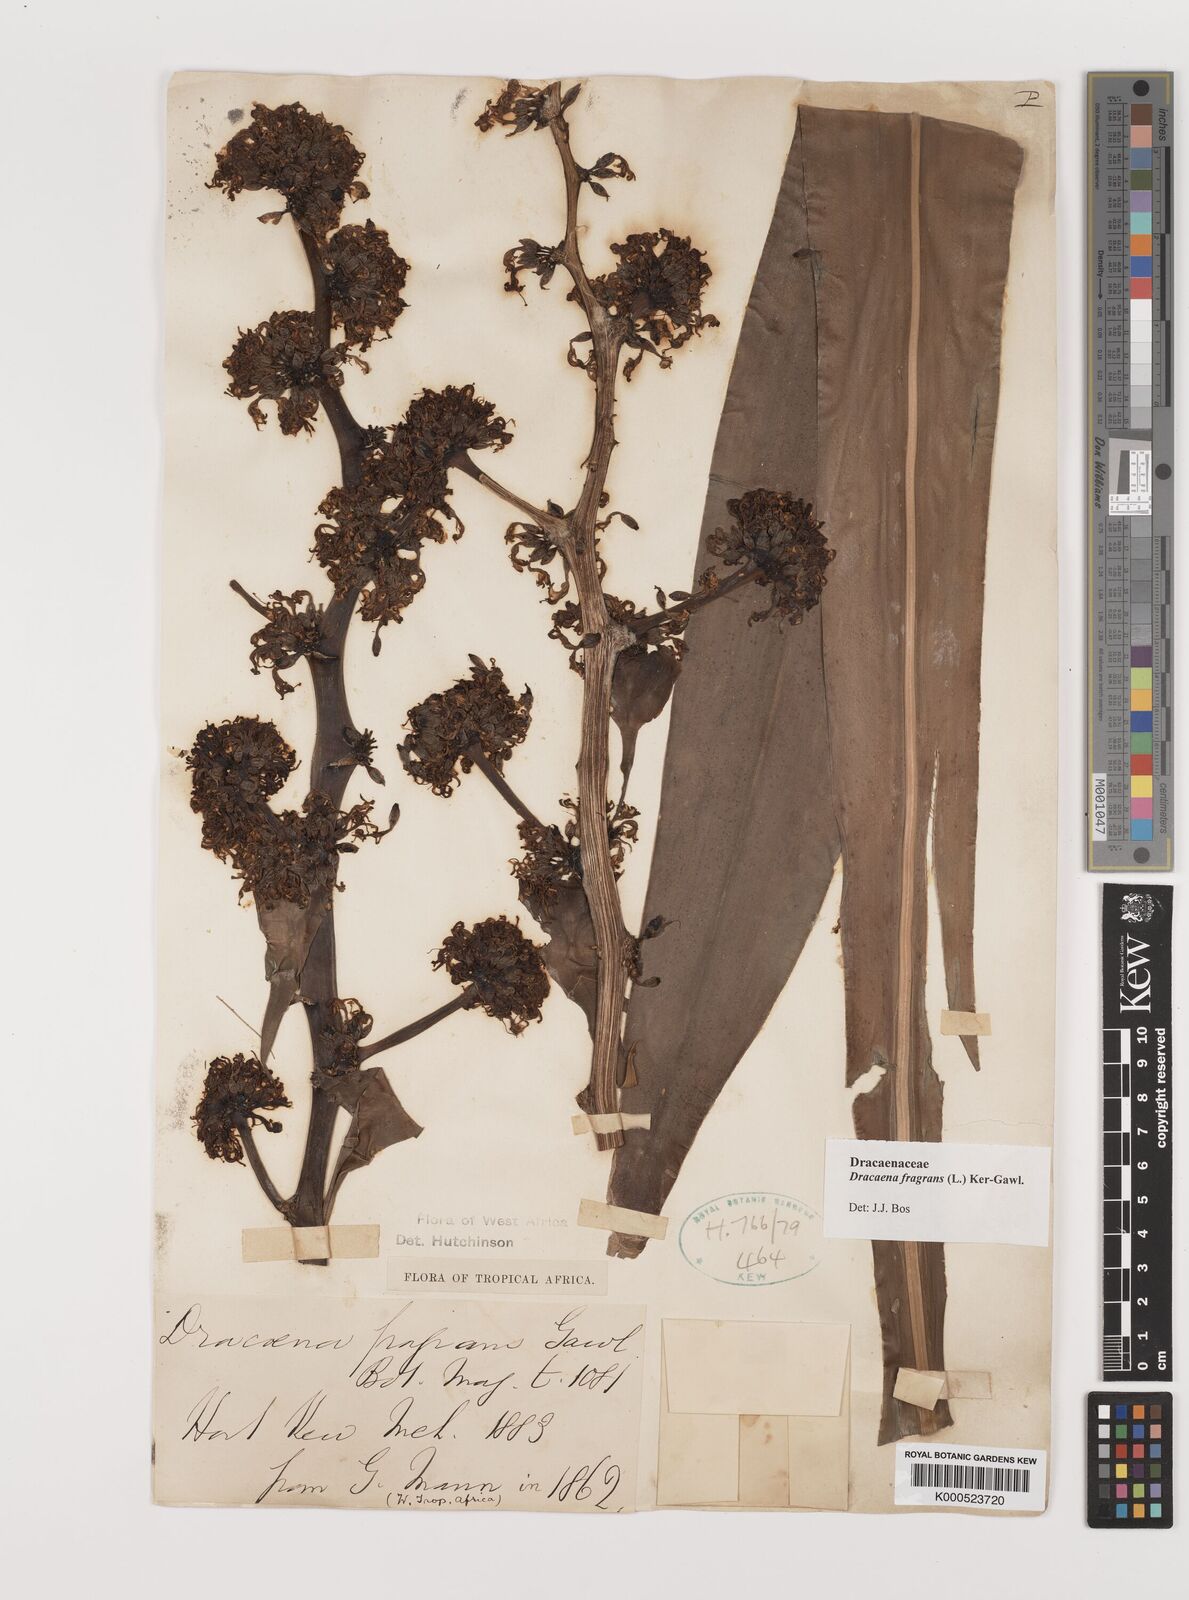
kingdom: Plantae
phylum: Tracheophyta
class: Liliopsida
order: Asparagales
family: Asparagaceae
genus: Dracaena
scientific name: Dracaena fragrans
